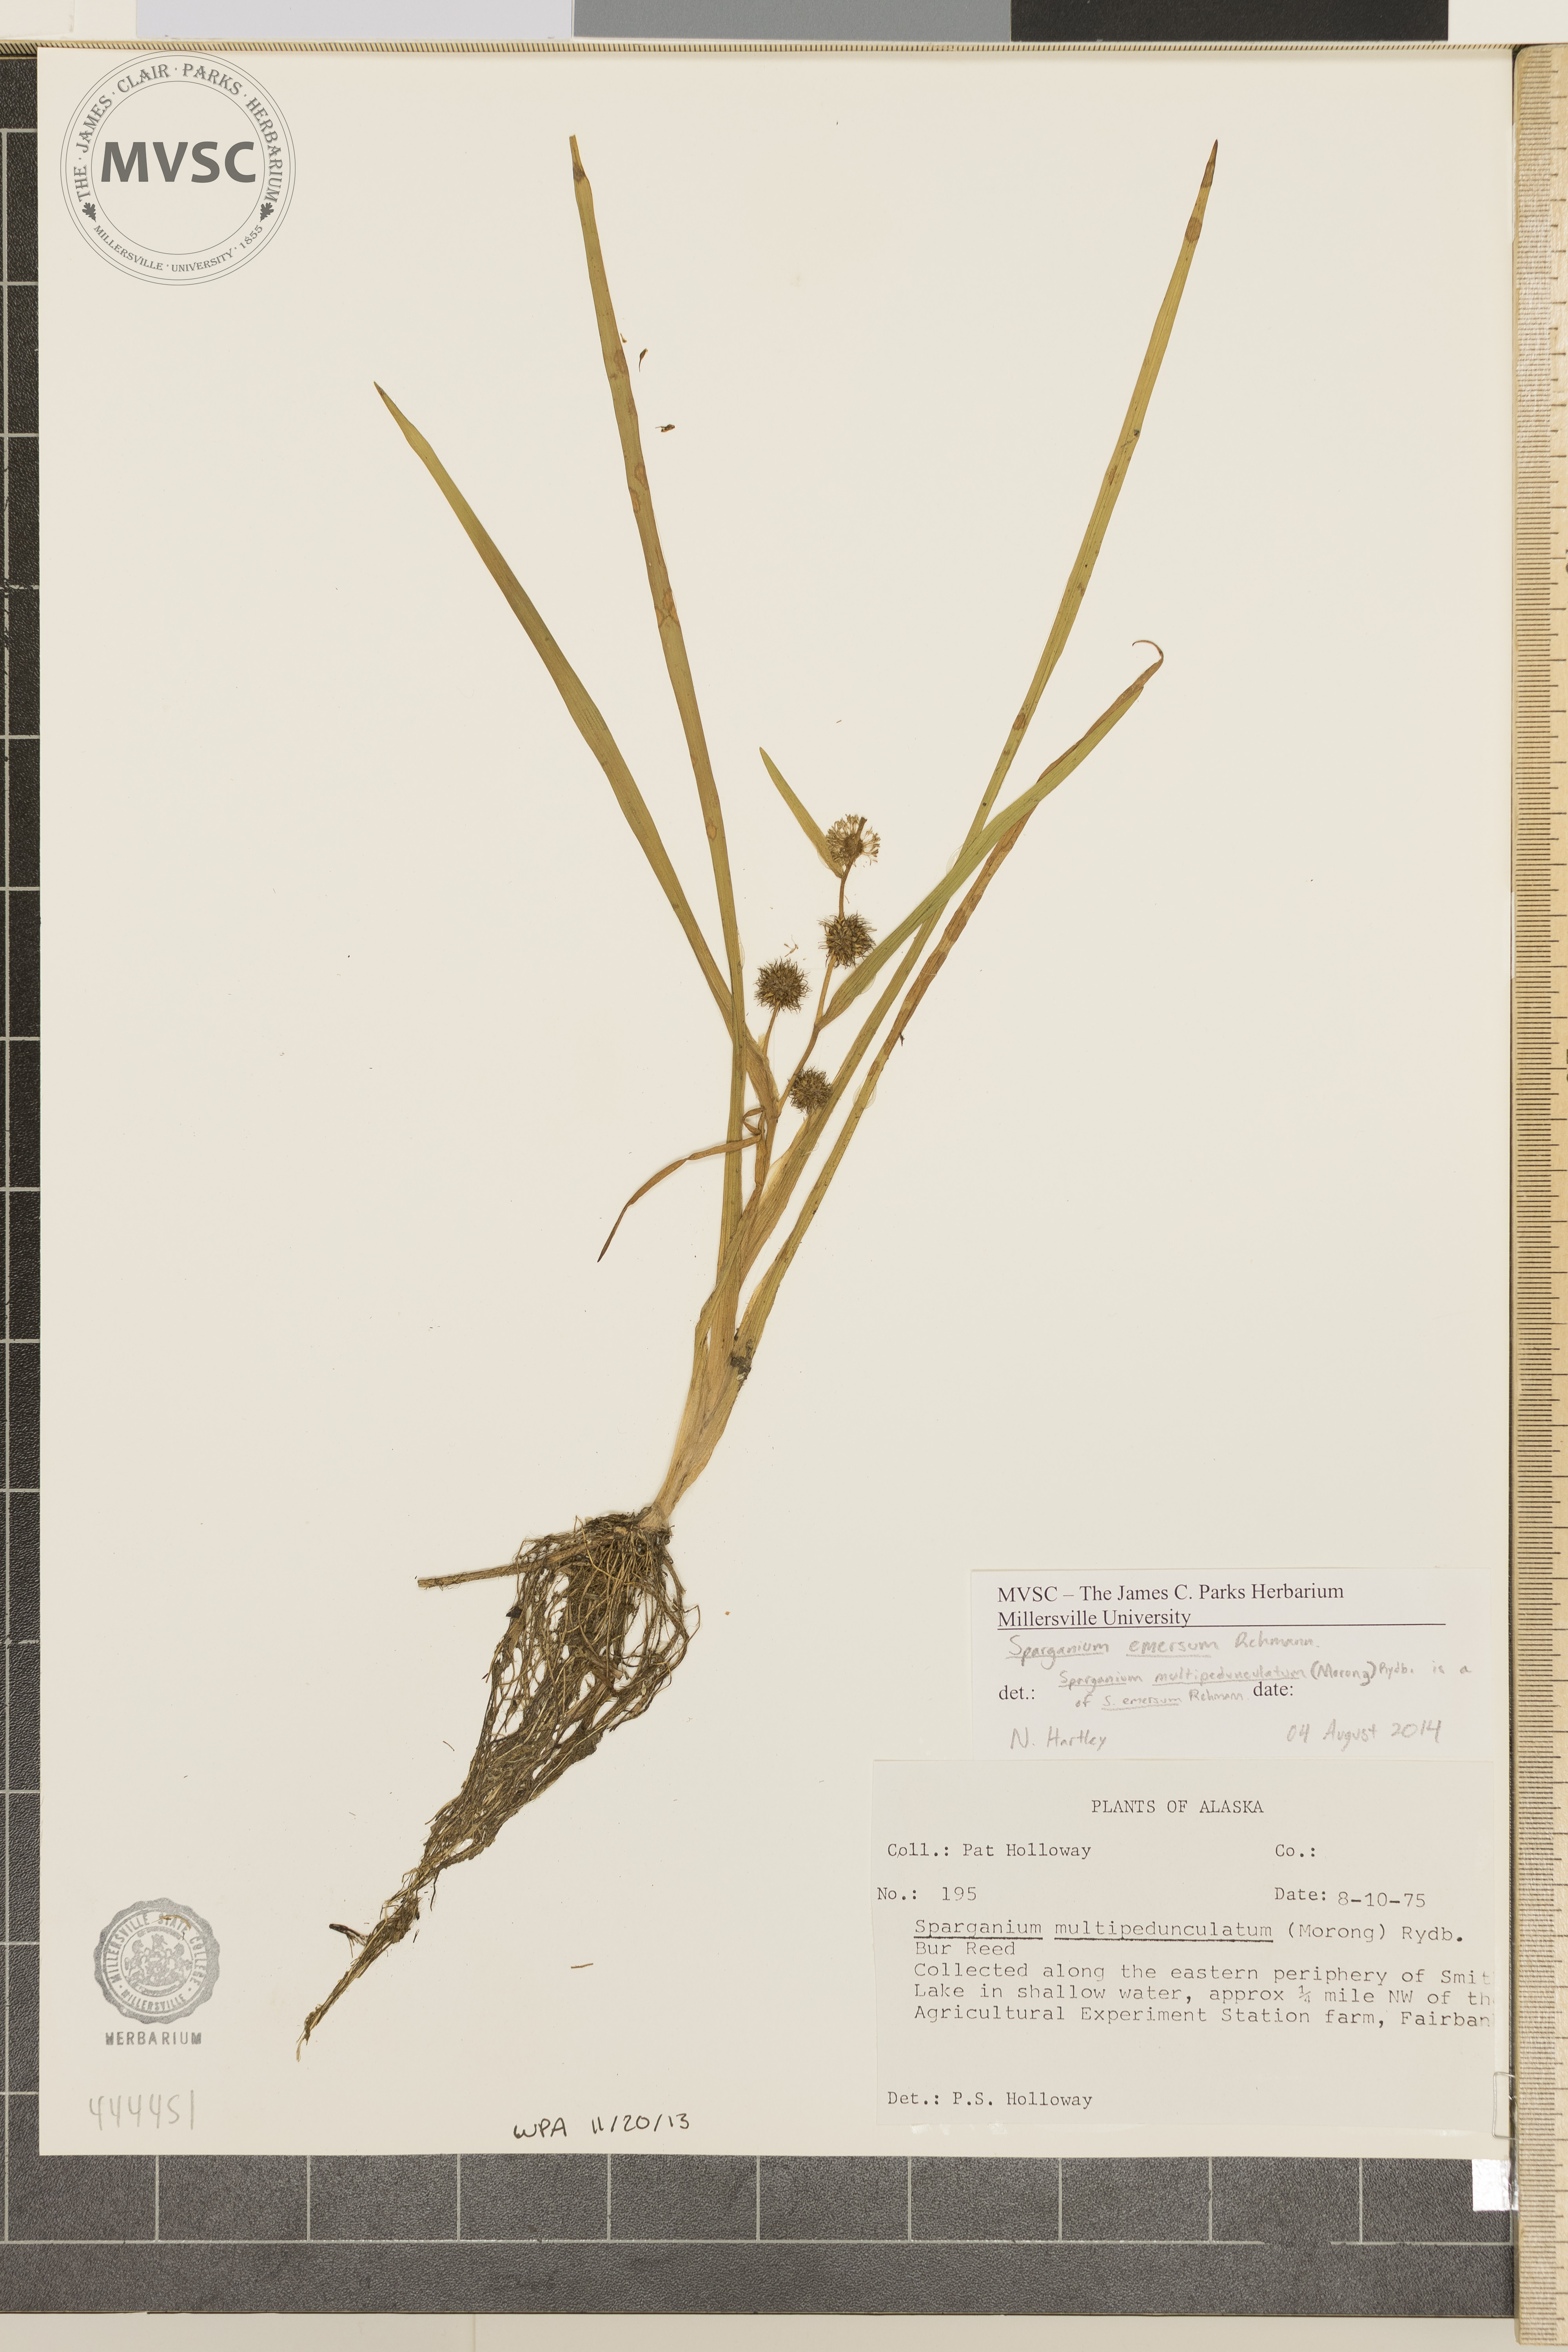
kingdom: Plantae
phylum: Tracheophyta
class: Liliopsida
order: Poales
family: Typhaceae
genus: Sparganium
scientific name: Sparganium emersum
